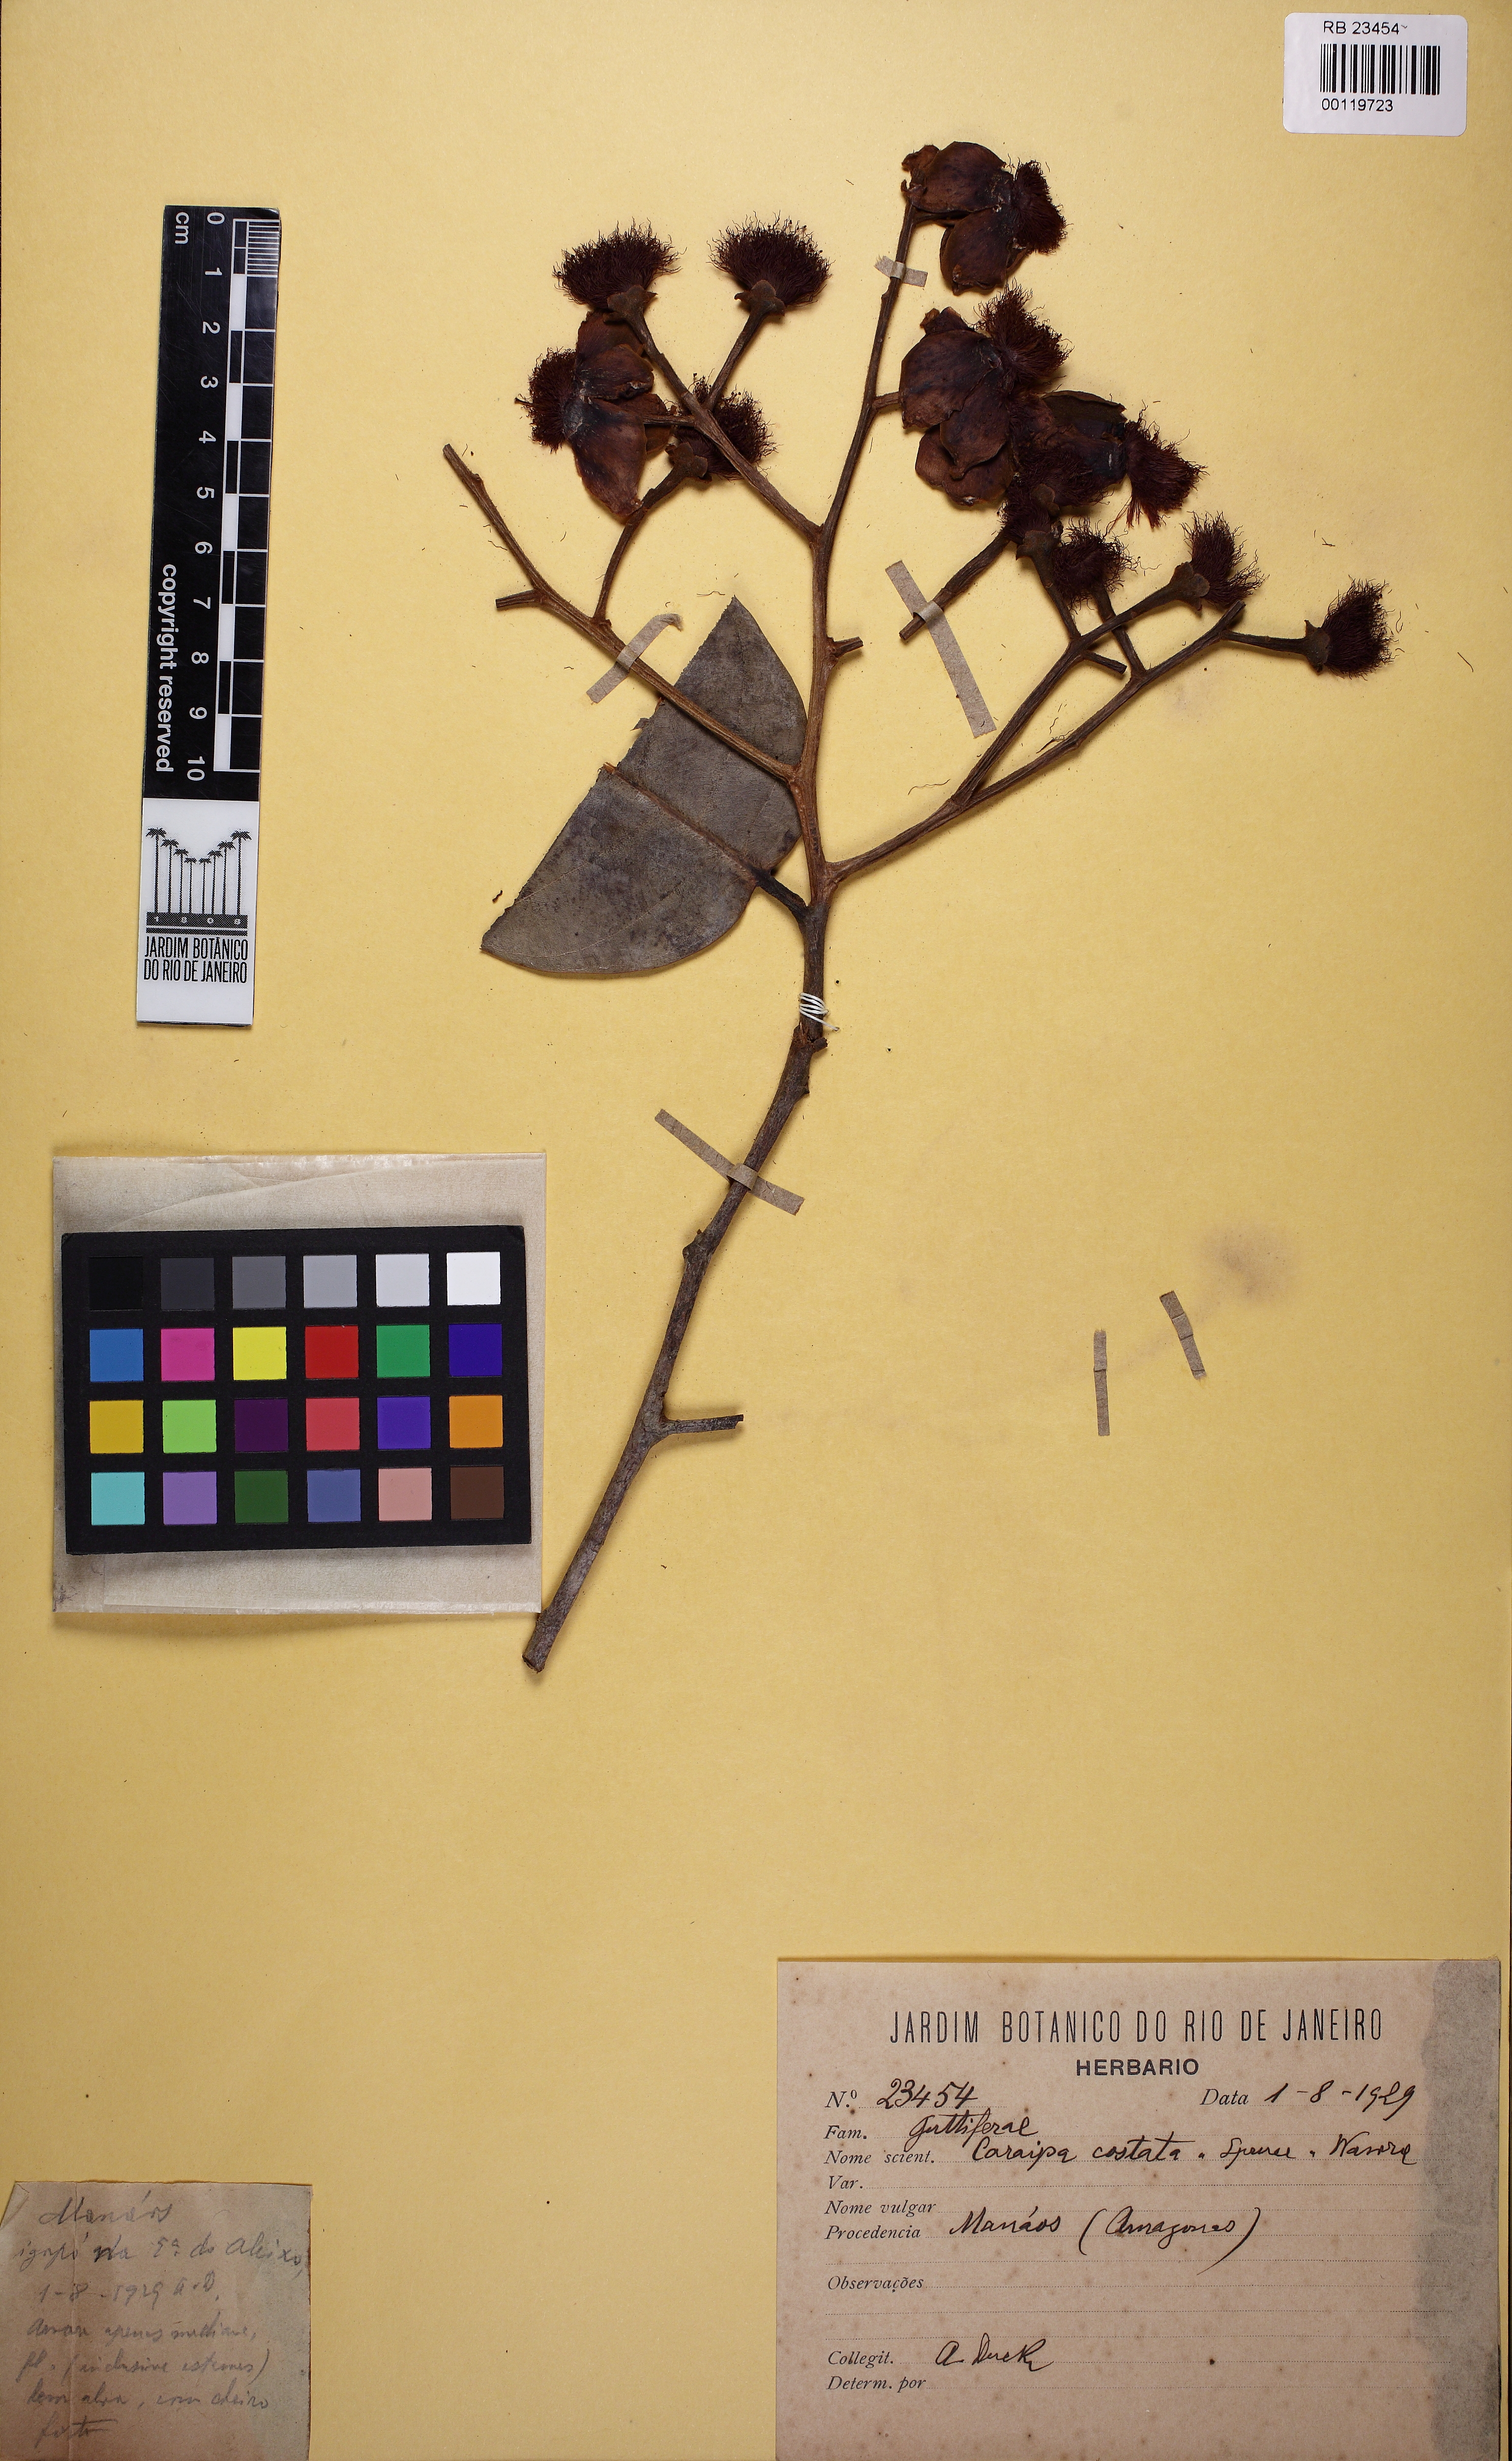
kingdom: Plantae
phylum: Tracheophyta
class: Magnoliopsida
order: Malpighiales
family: Calophyllaceae
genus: Caraipa
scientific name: Caraipa costata
